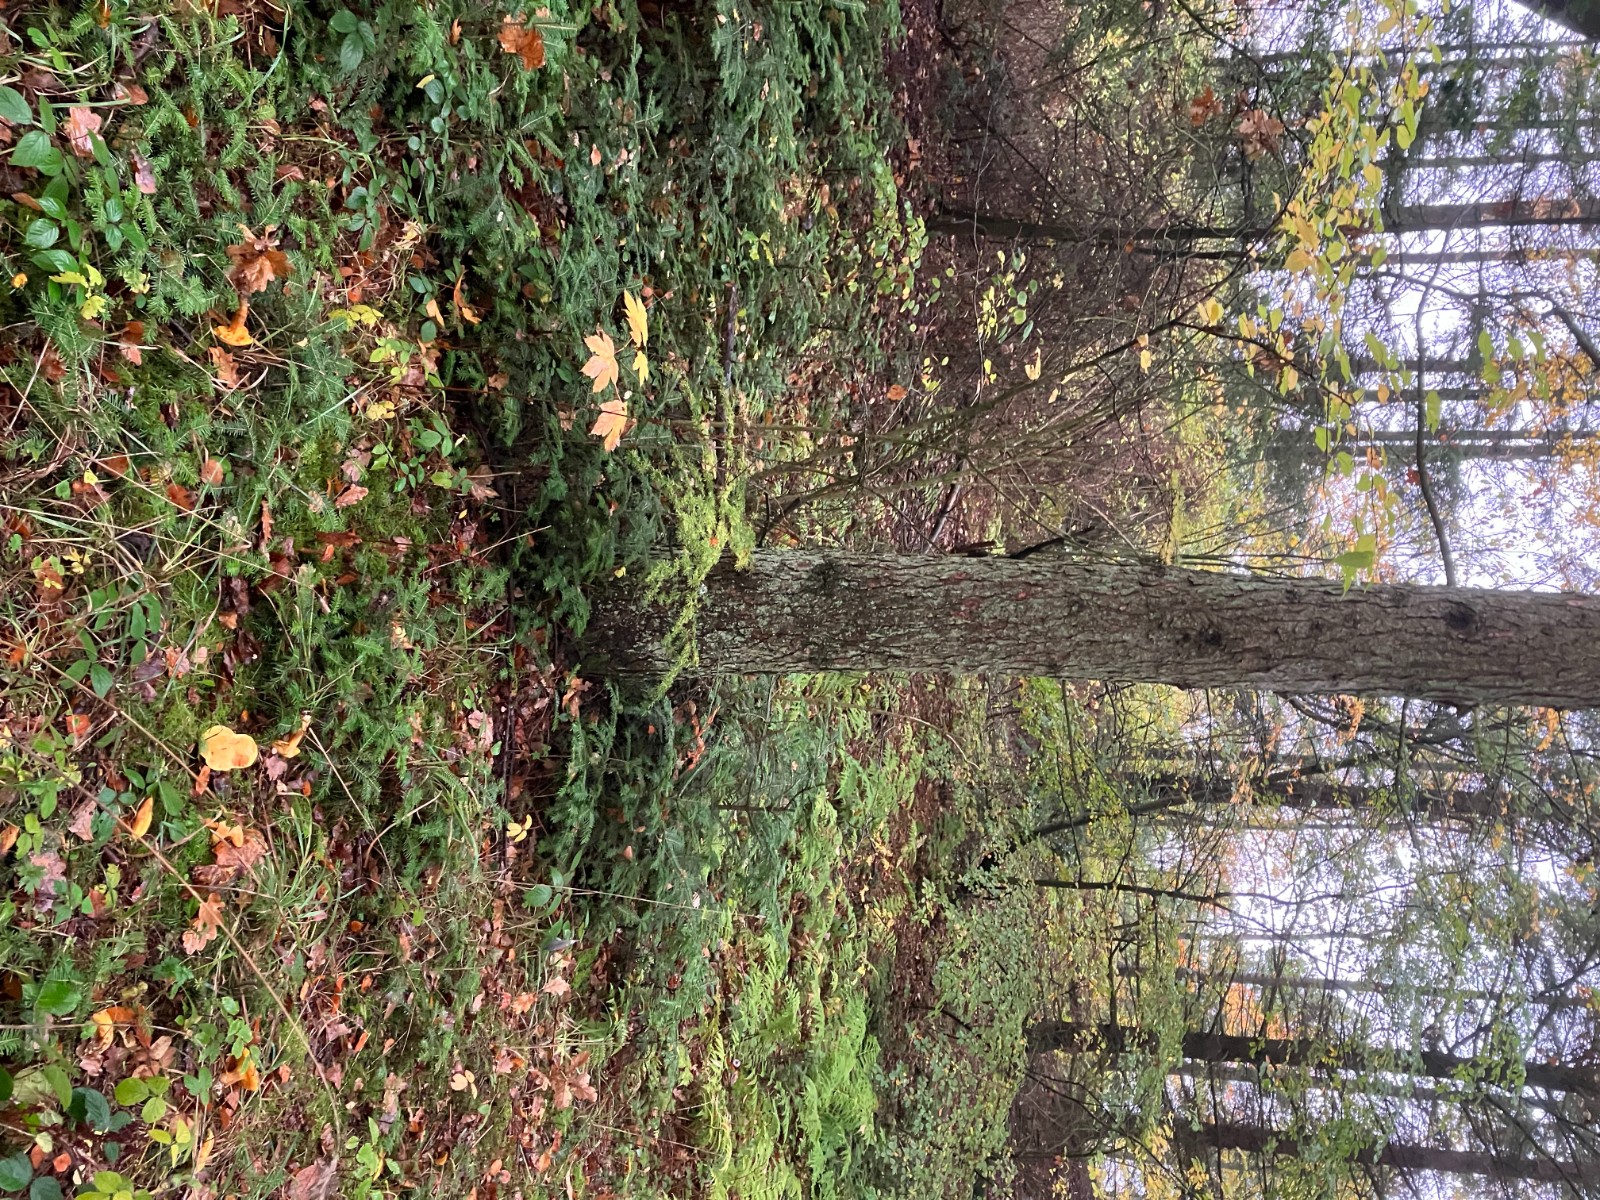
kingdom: Fungi
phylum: Basidiomycota
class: Agaricomycetes
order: Boletales
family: Suillaceae
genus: Suillus
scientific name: Suillus grevillei
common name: lærke-slimrørhat
